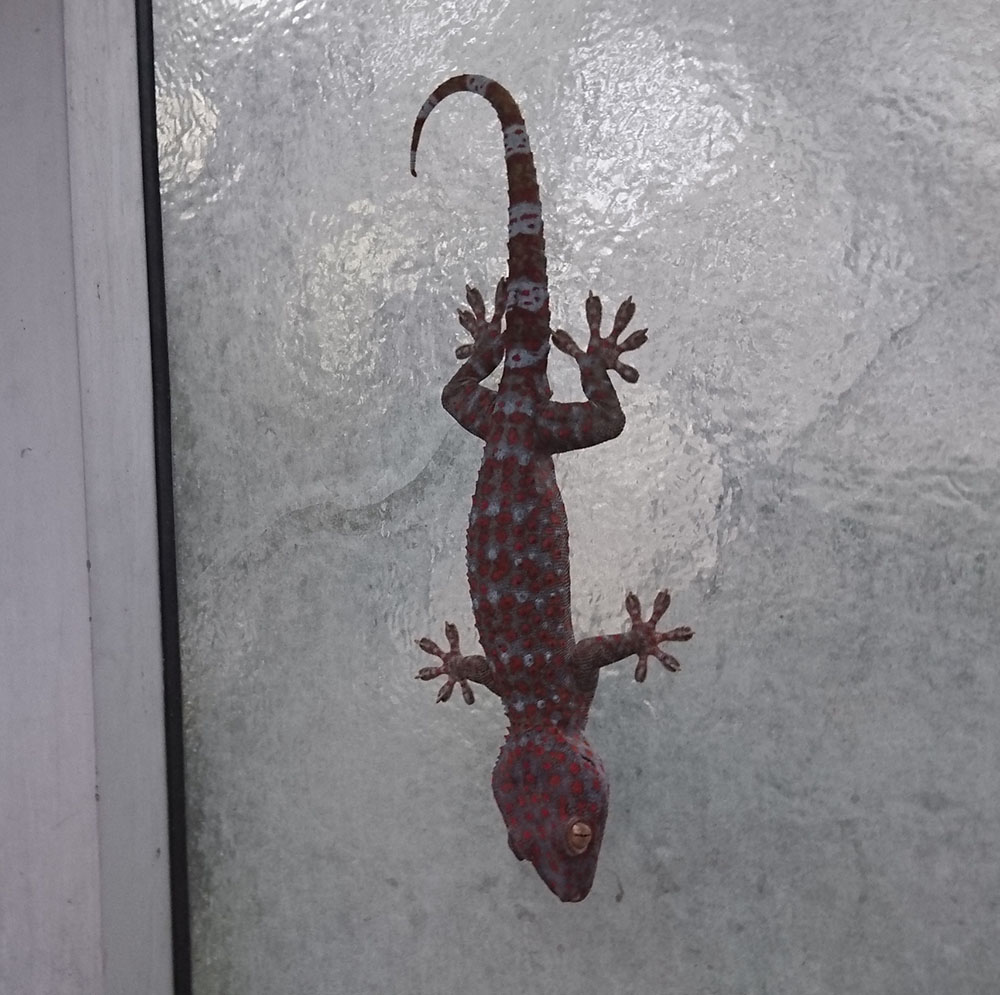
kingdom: Animalia
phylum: Chordata
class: Squamata
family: Gekkonidae
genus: Gekko
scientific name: Gekko gecko
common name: Tokay gecko
